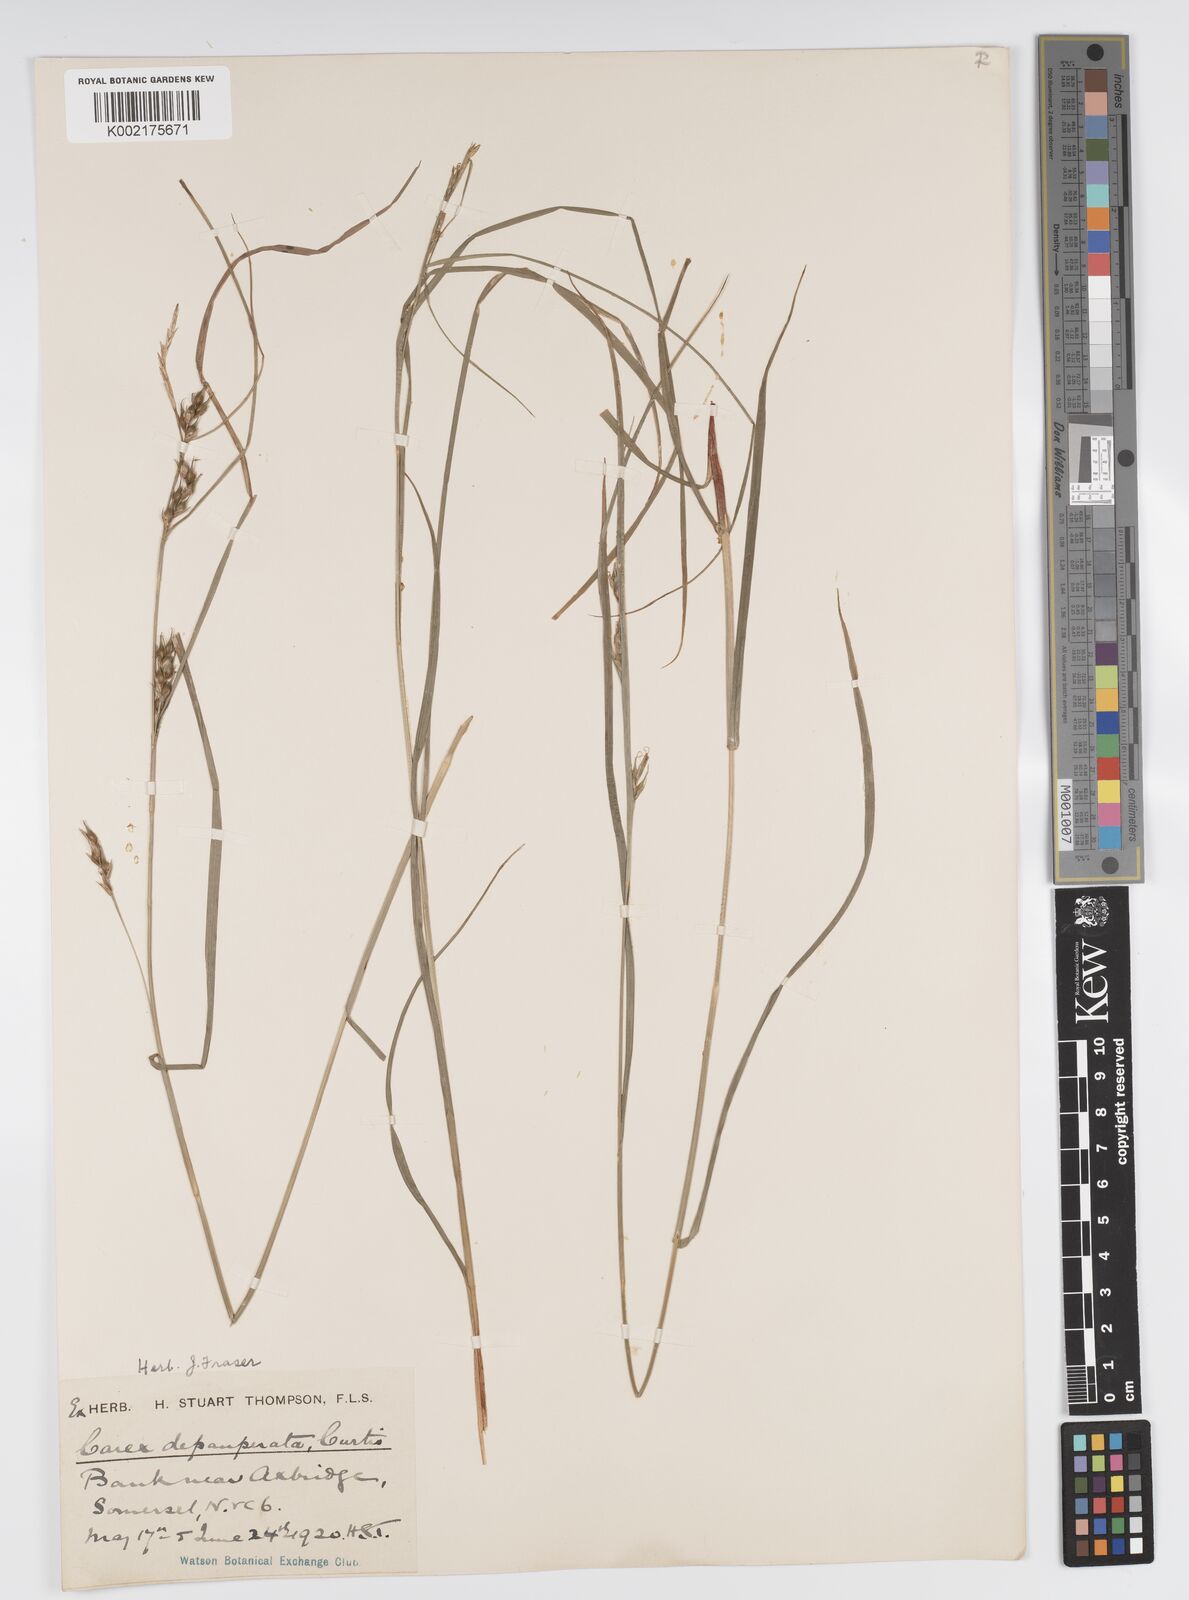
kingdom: Plantae
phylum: Tracheophyta
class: Liliopsida
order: Poales
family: Cyperaceae
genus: Carex
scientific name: Carex depauperata
